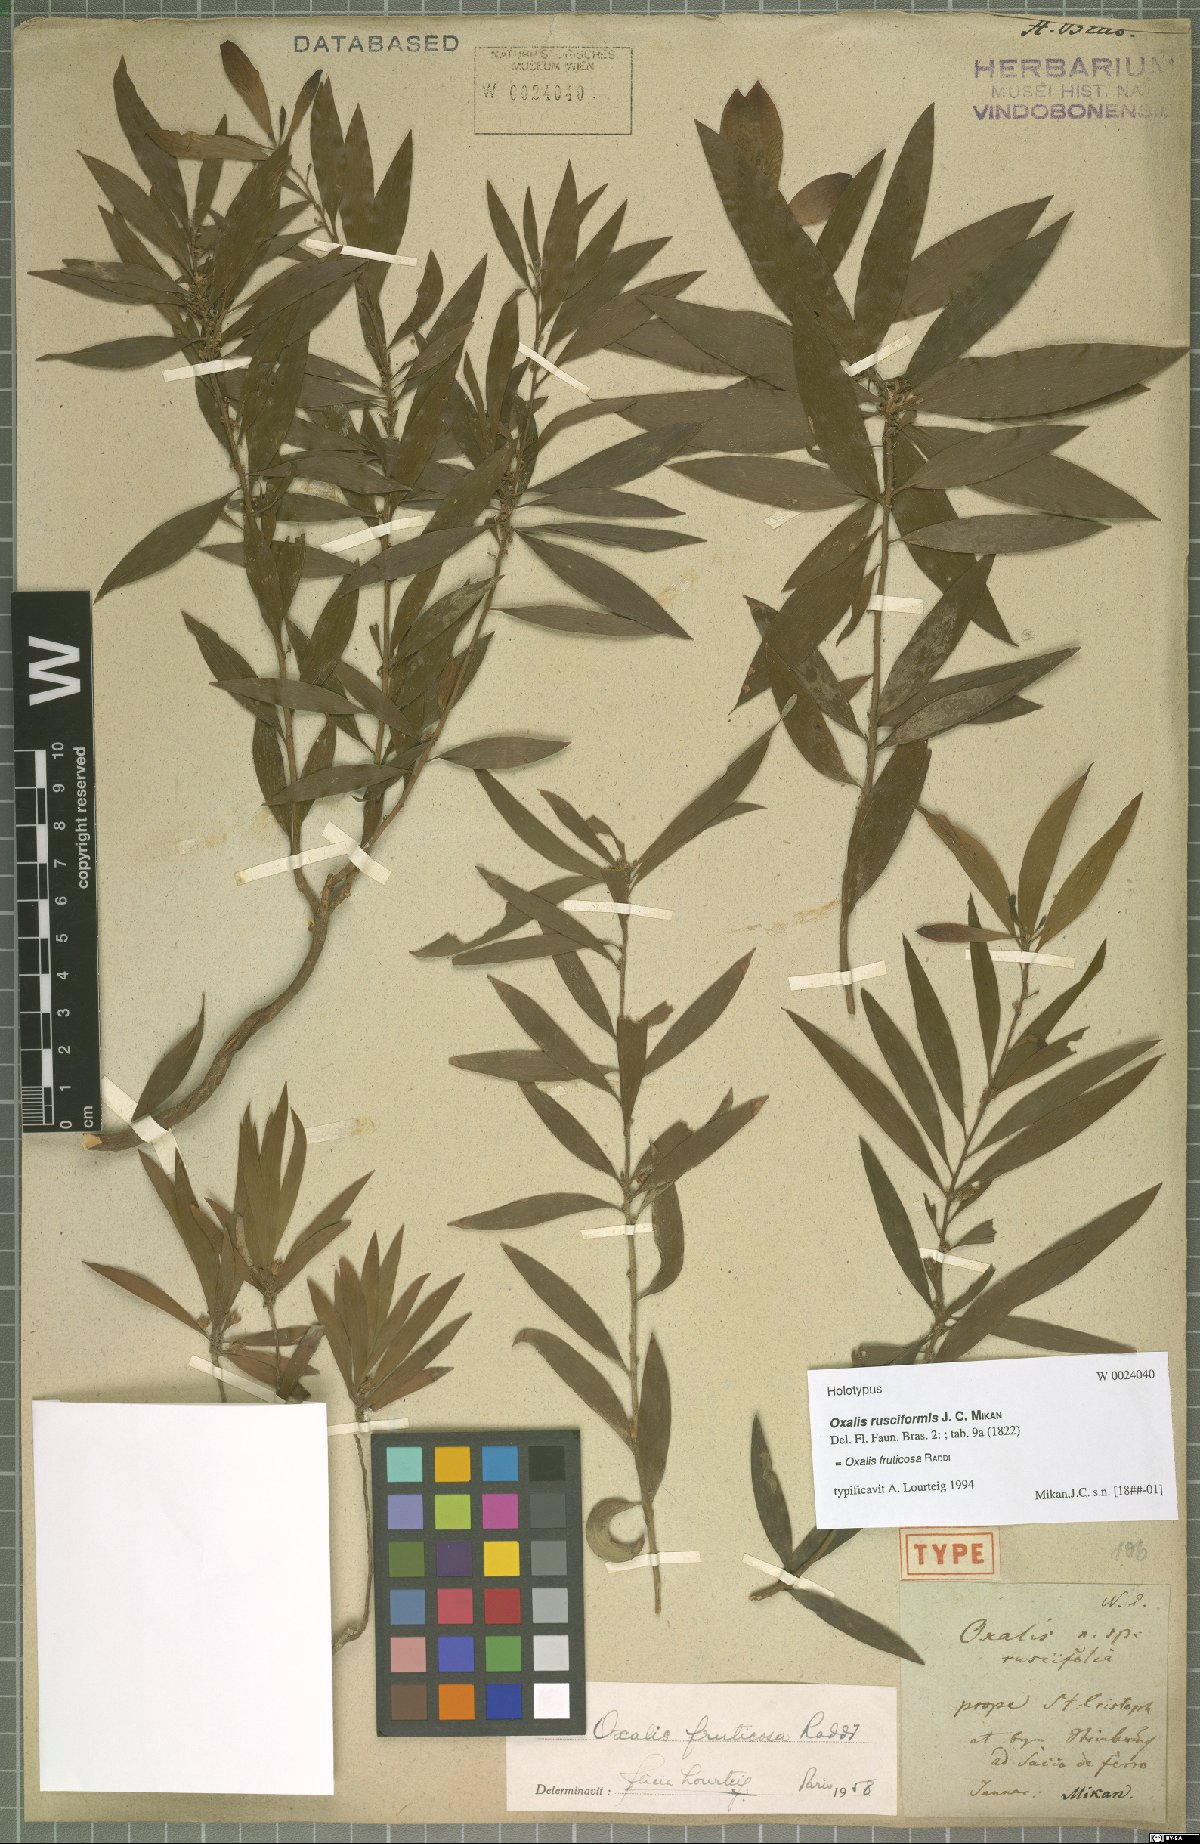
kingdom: Plantae
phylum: Tracheophyta
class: Magnoliopsida
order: Oxalidales
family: Oxalidaceae
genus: Oxalis
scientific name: Oxalis fruticosa
